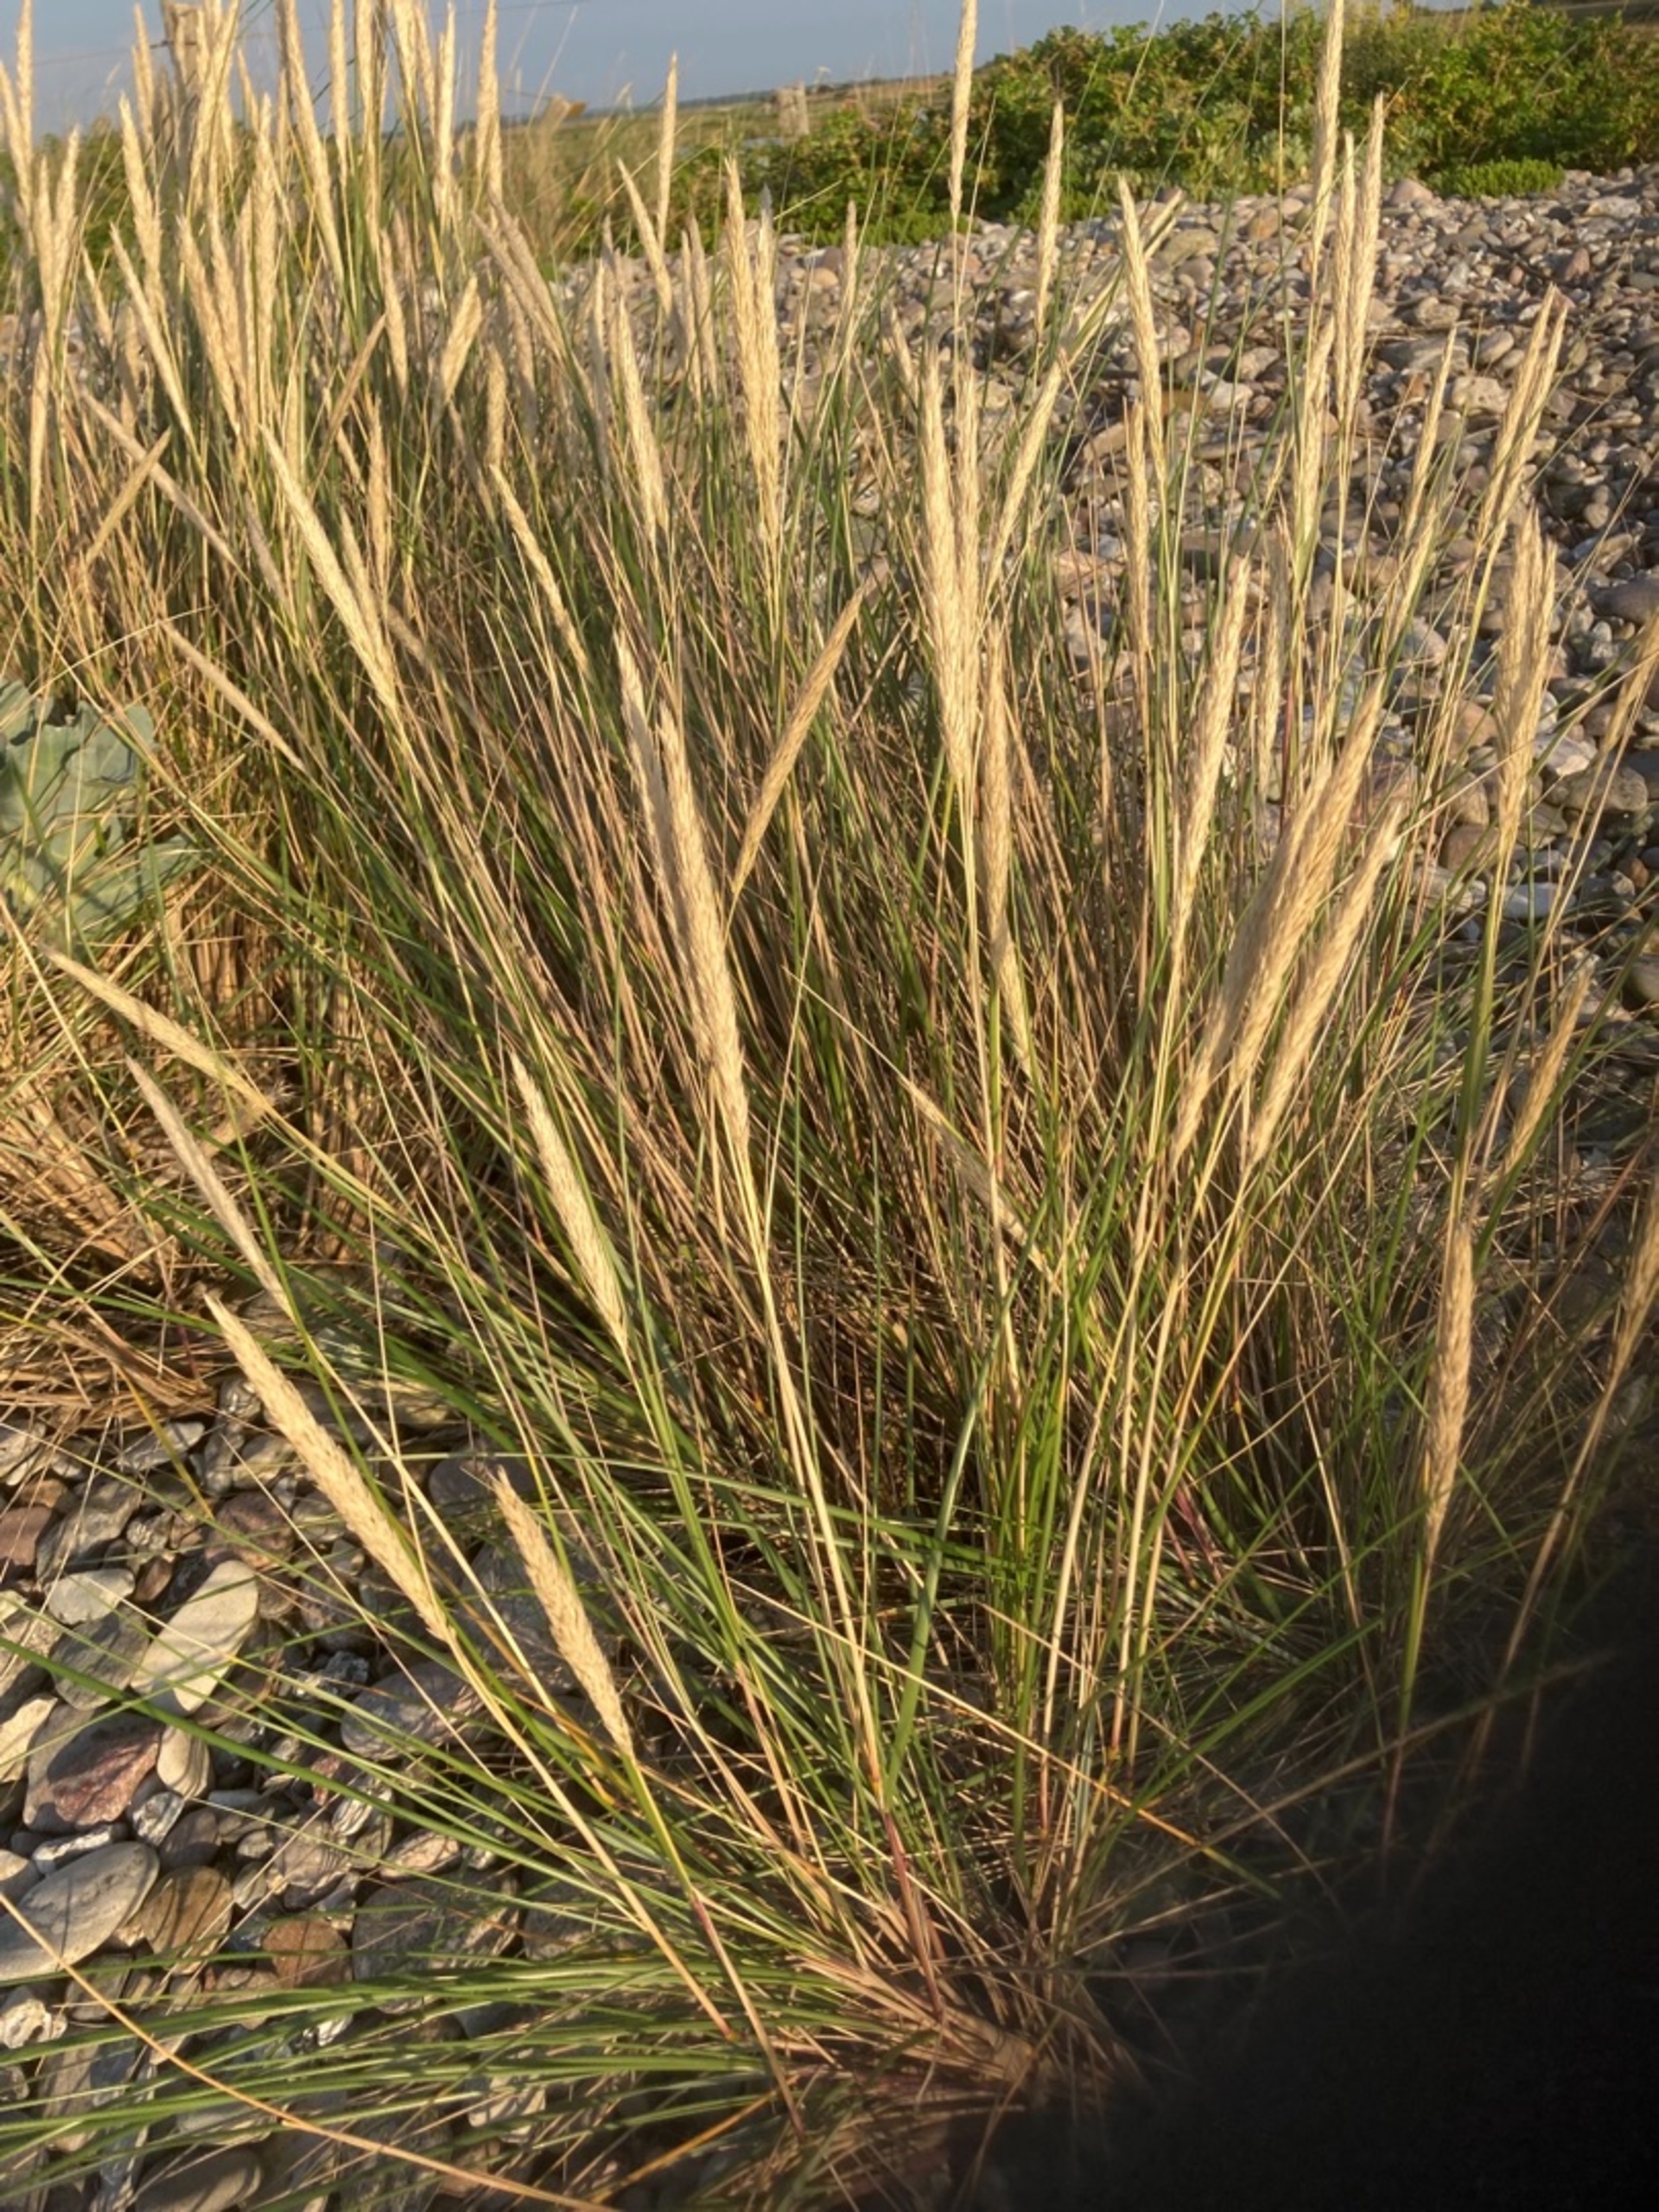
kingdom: Plantae
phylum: Tracheophyta
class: Liliopsida
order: Poales
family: Poaceae
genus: Calamagrostis
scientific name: Calamagrostis arenaria
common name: Sand-hjælme
